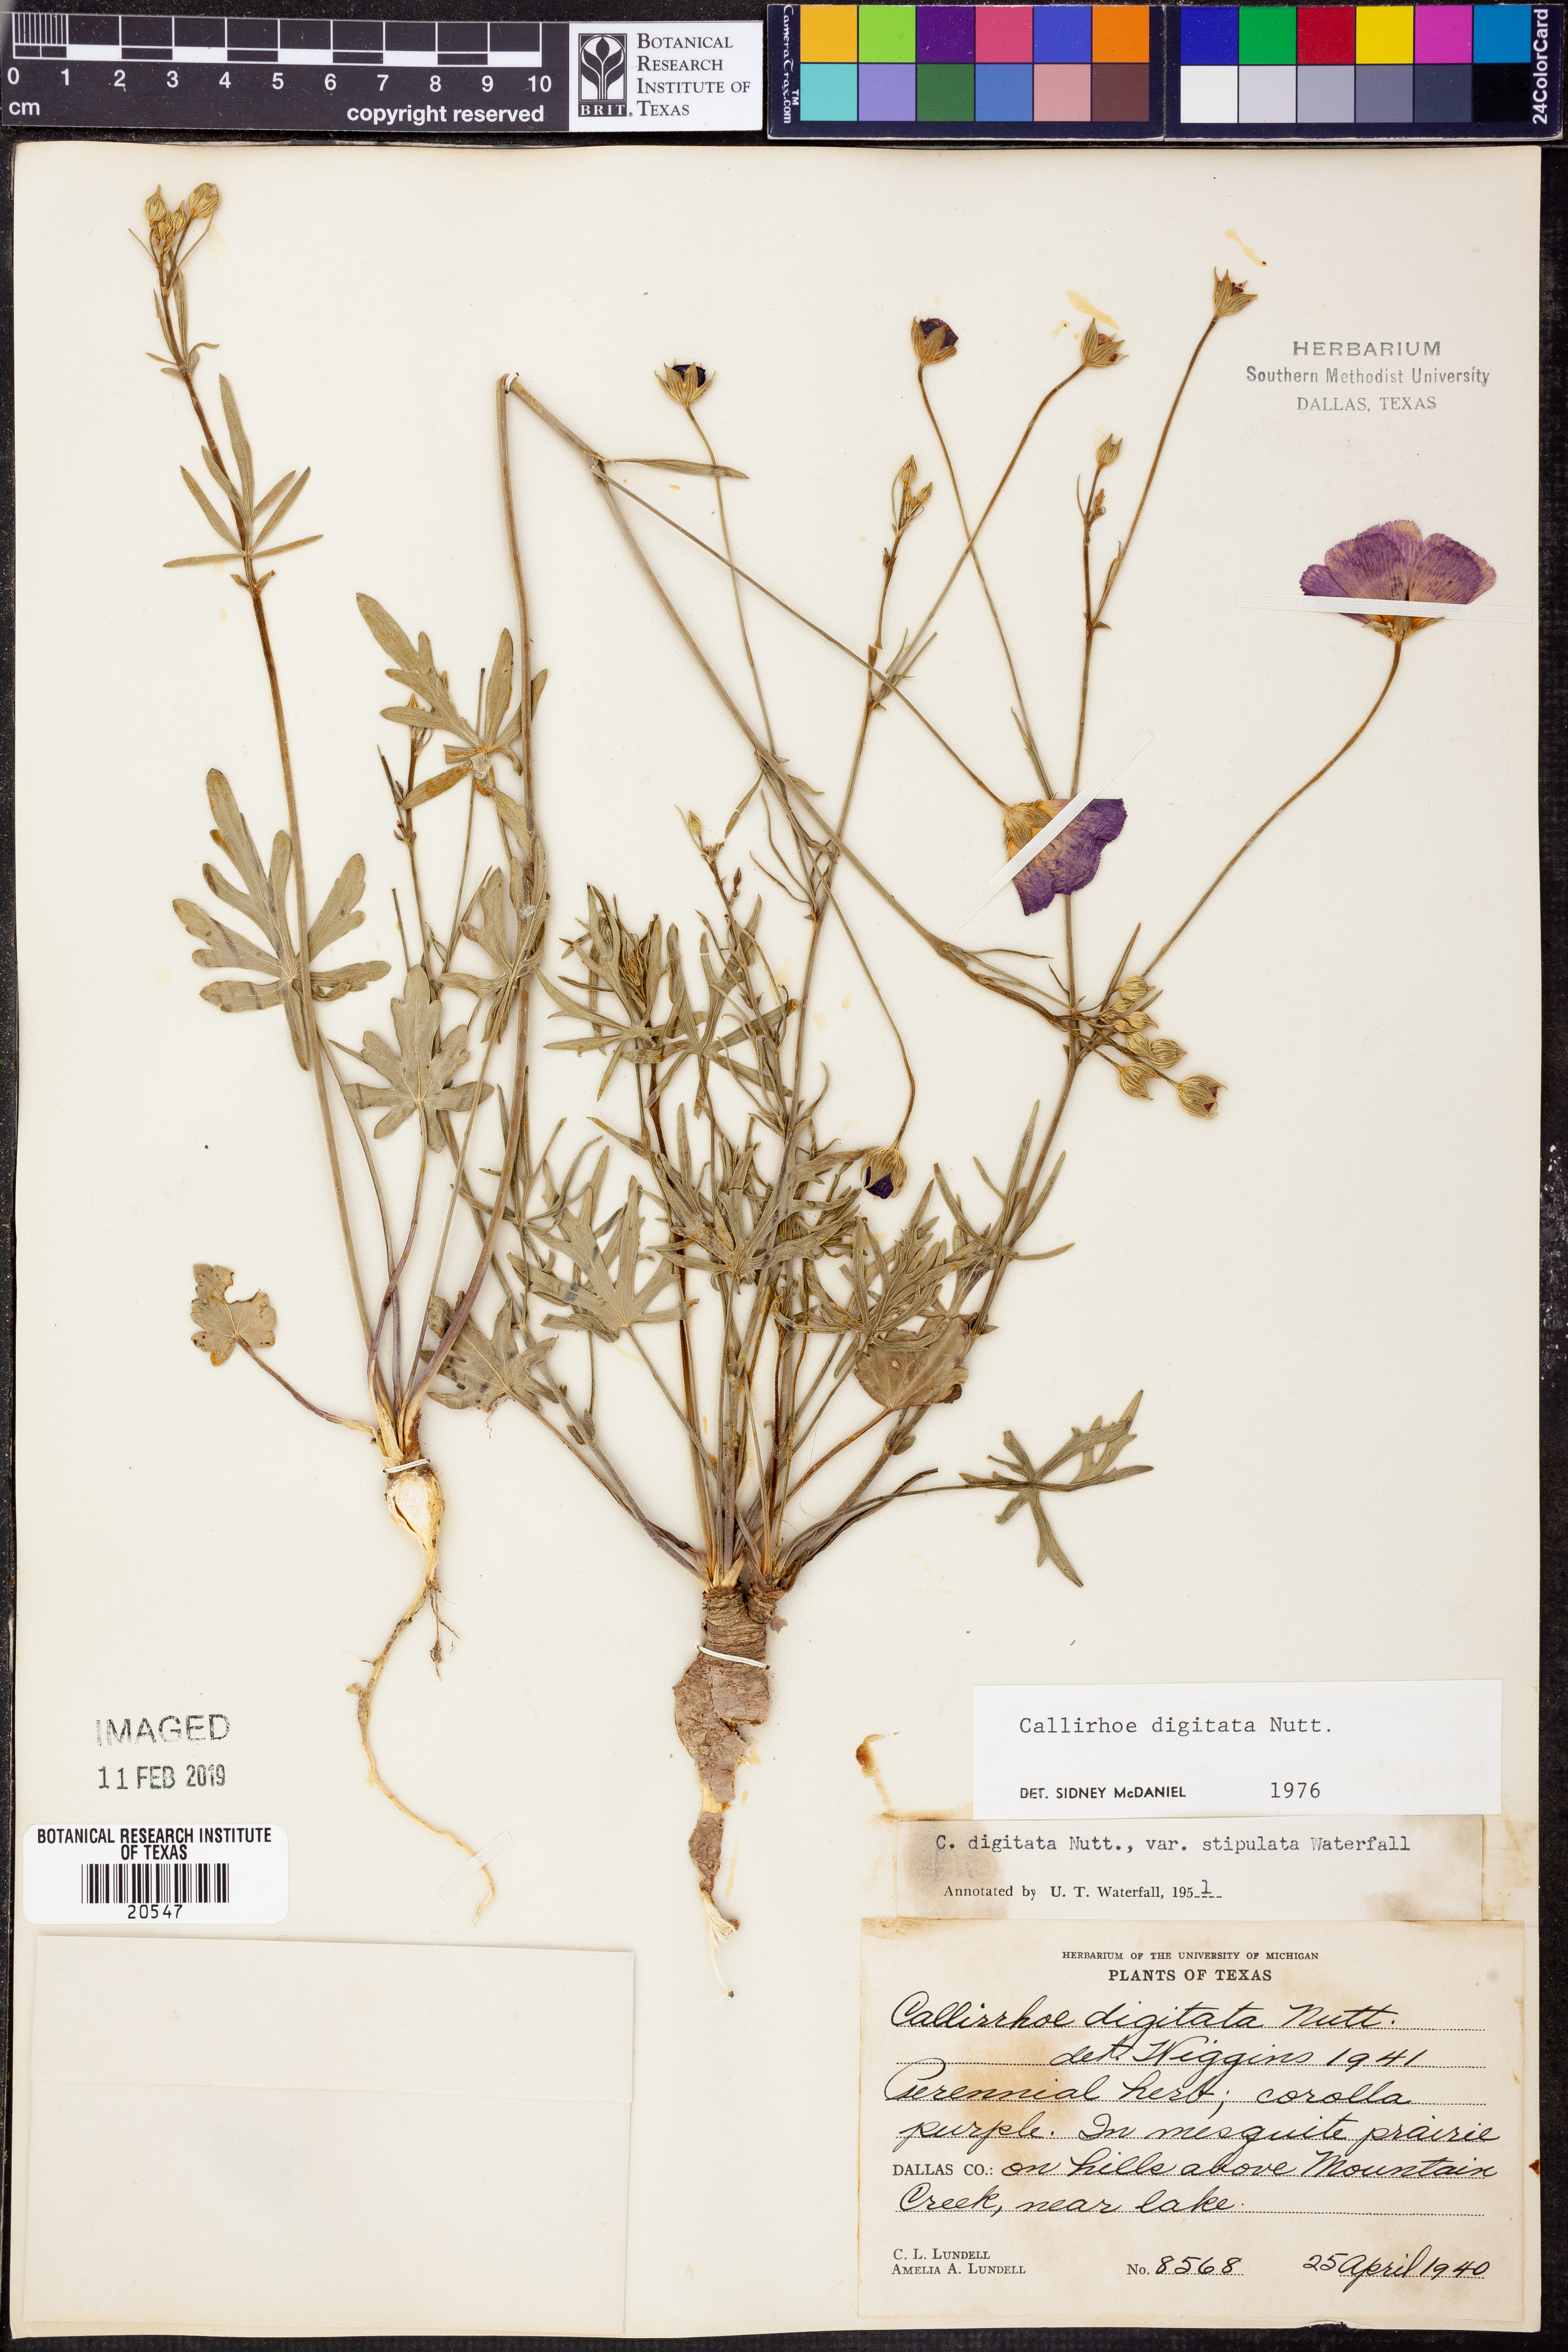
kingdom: Plantae
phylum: Tracheophyta
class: Magnoliopsida
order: Malvales
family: Malvaceae
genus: Callirhoe
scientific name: Callirhoe digitata
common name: Finger poppy-mallow
